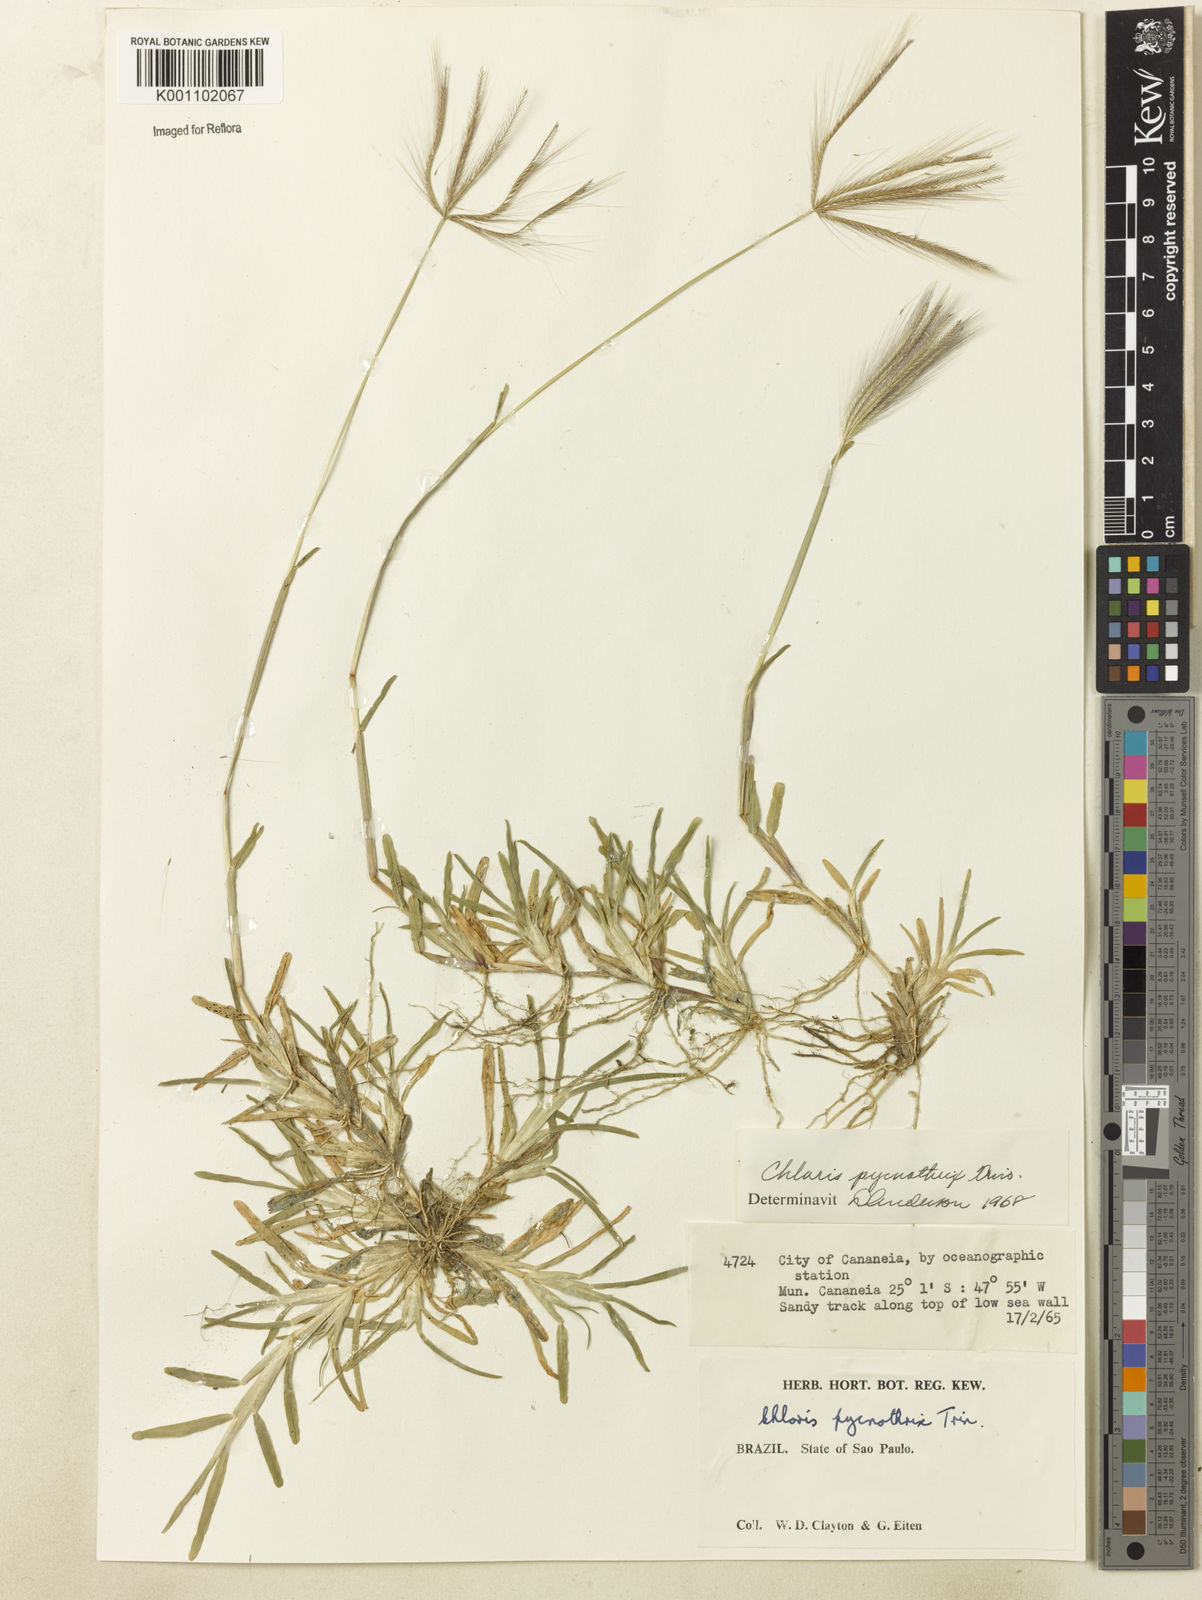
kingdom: Plantae
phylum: Tracheophyta
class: Liliopsida
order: Poales
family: Poaceae
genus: Chloris
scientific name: Chloris pycnothrix
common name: Spiderweb chloris
